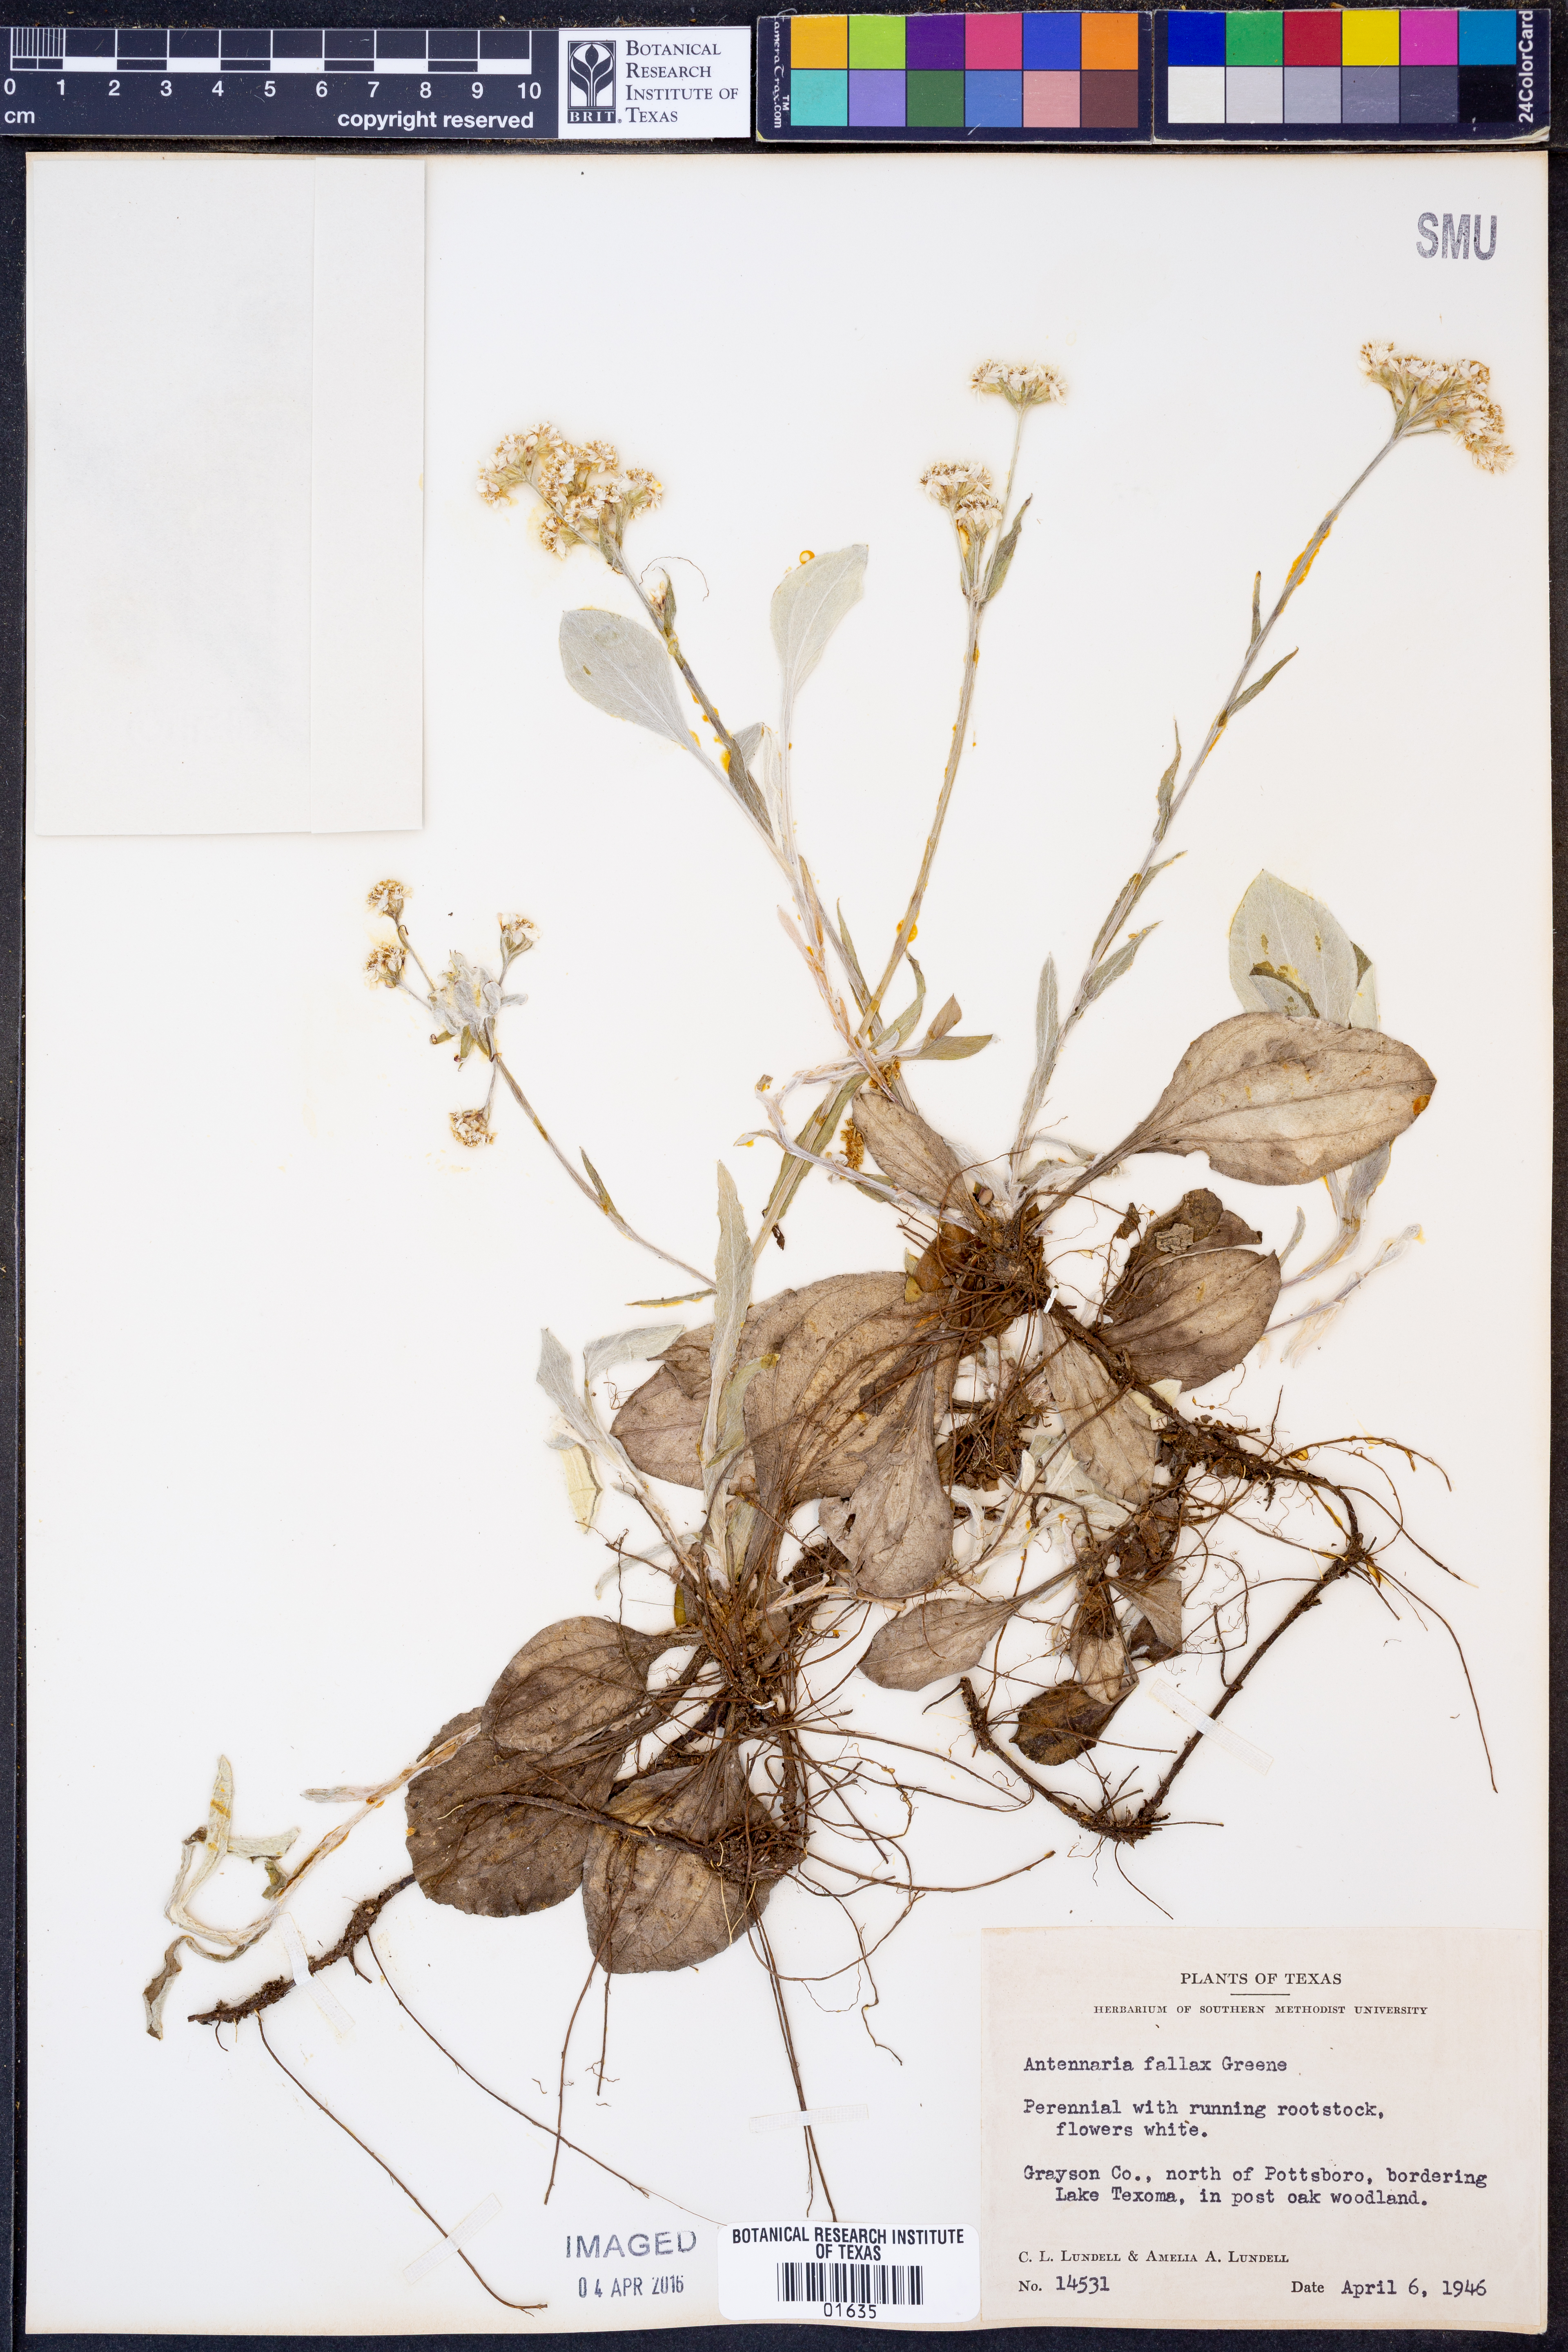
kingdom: Plantae
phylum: Tracheophyta
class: Magnoliopsida
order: Asterales
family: Asteraceae
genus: Antennaria
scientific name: Antennaria parlinii
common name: Parlin's pussytoes
